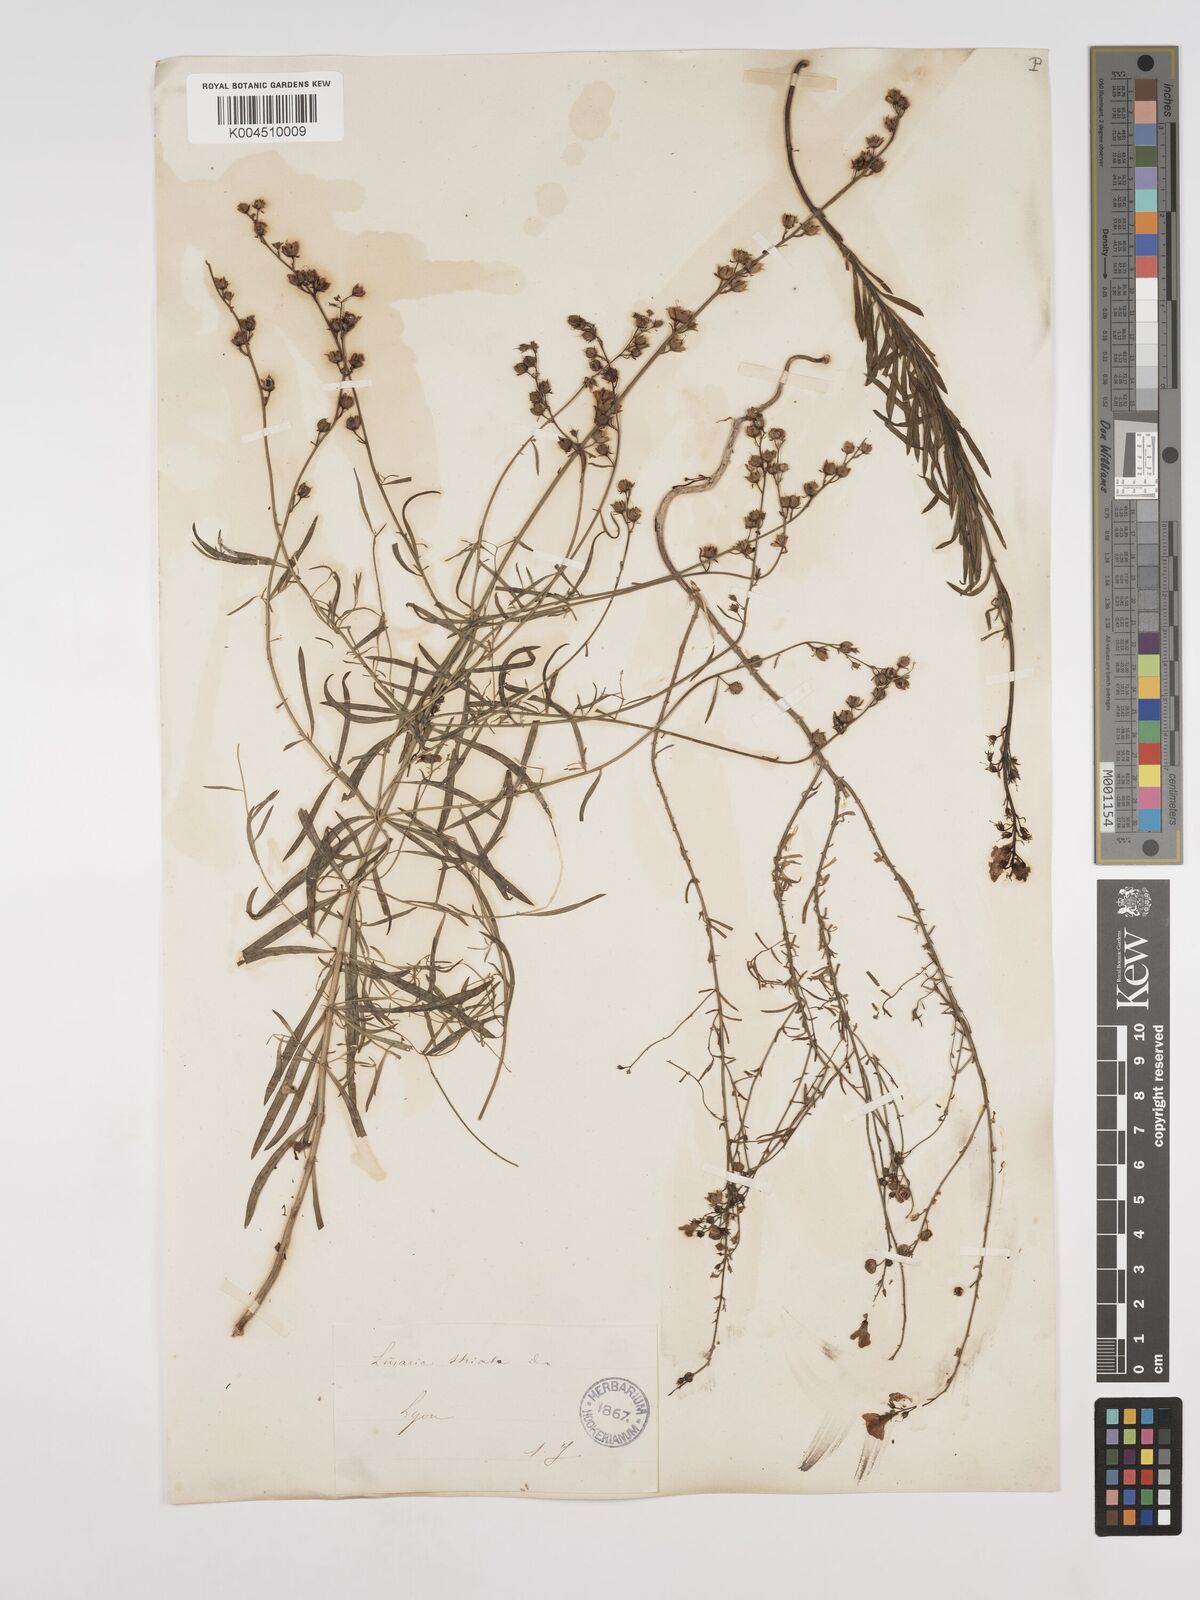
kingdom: Plantae
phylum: Tracheophyta
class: Magnoliopsida
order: Lamiales
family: Plantaginaceae
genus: Linaria
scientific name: Linaria repens
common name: Pale toadflax
